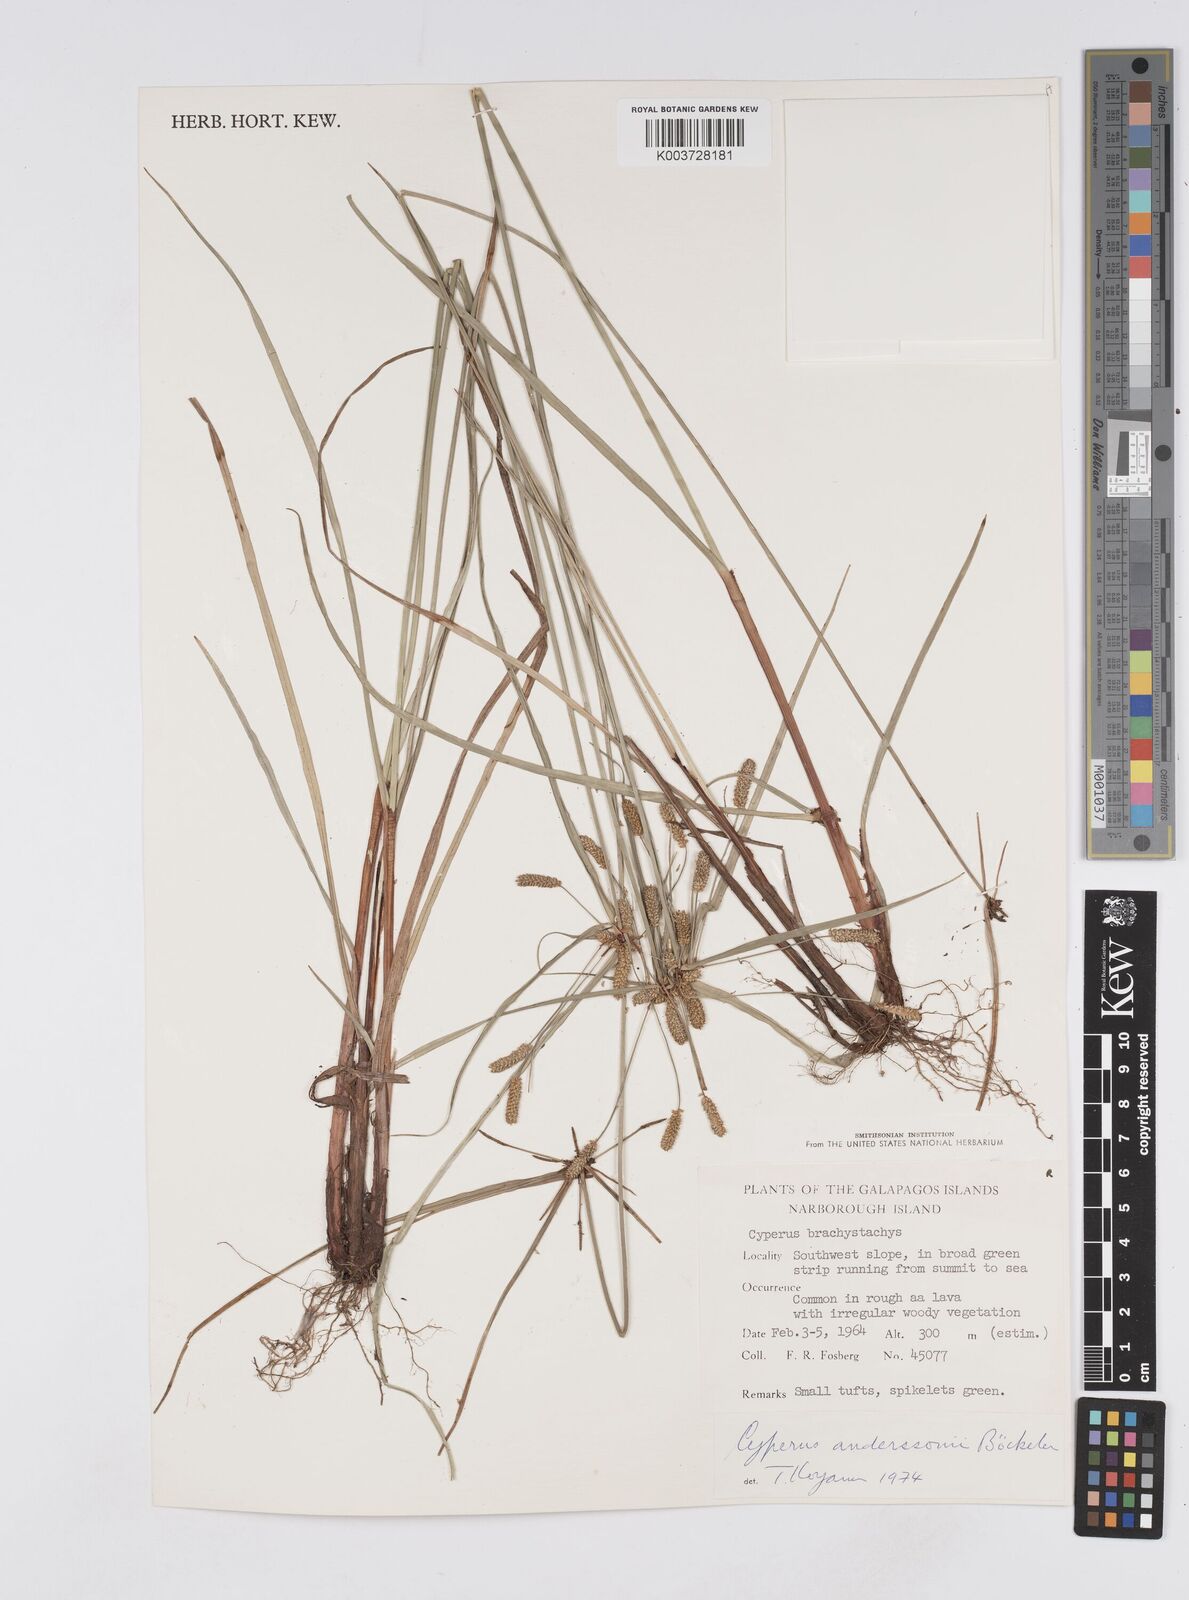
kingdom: Plantae
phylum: Tracheophyta
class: Liliopsida
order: Poales
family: Cyperaceae
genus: Cyperus
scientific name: Cyperus anderssonii
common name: Andersson's sedge
